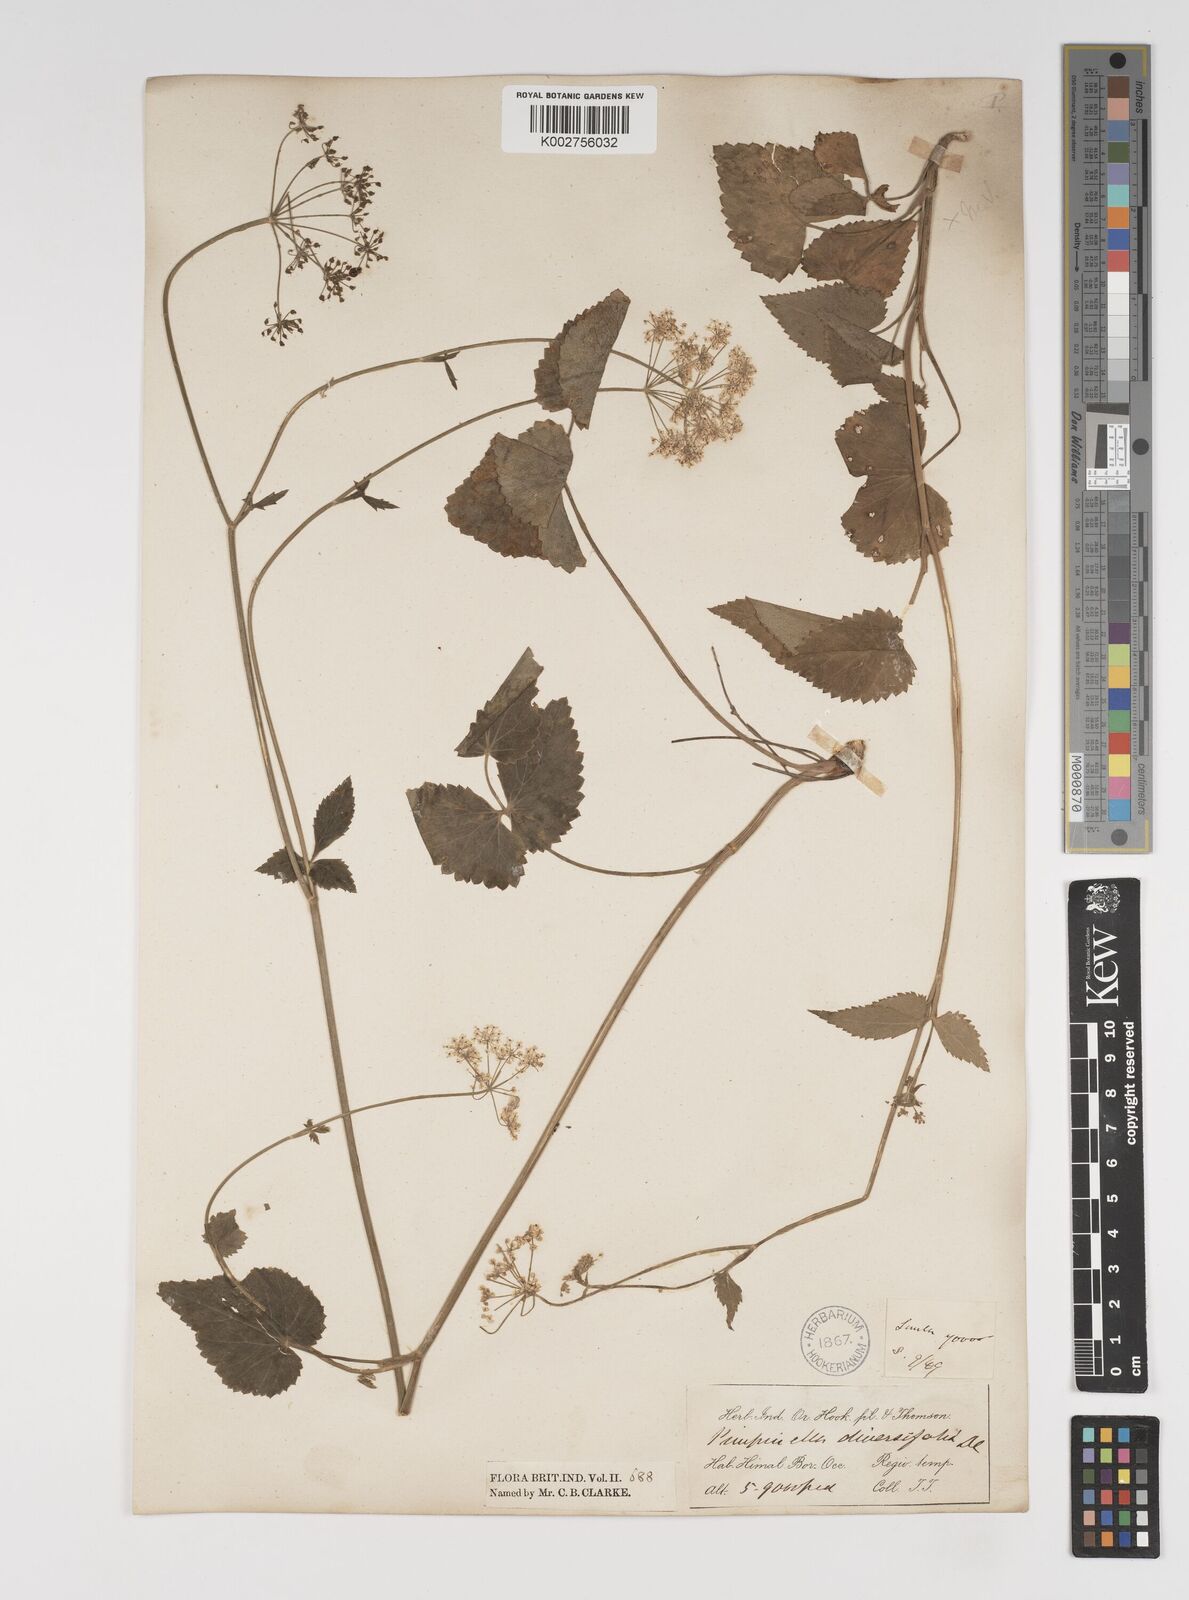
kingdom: Plantae
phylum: Tracheophyta
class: Magnoliopsida
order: Apiales
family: Apiaceae
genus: Pimpinella
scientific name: Pimpinella diversifolia
